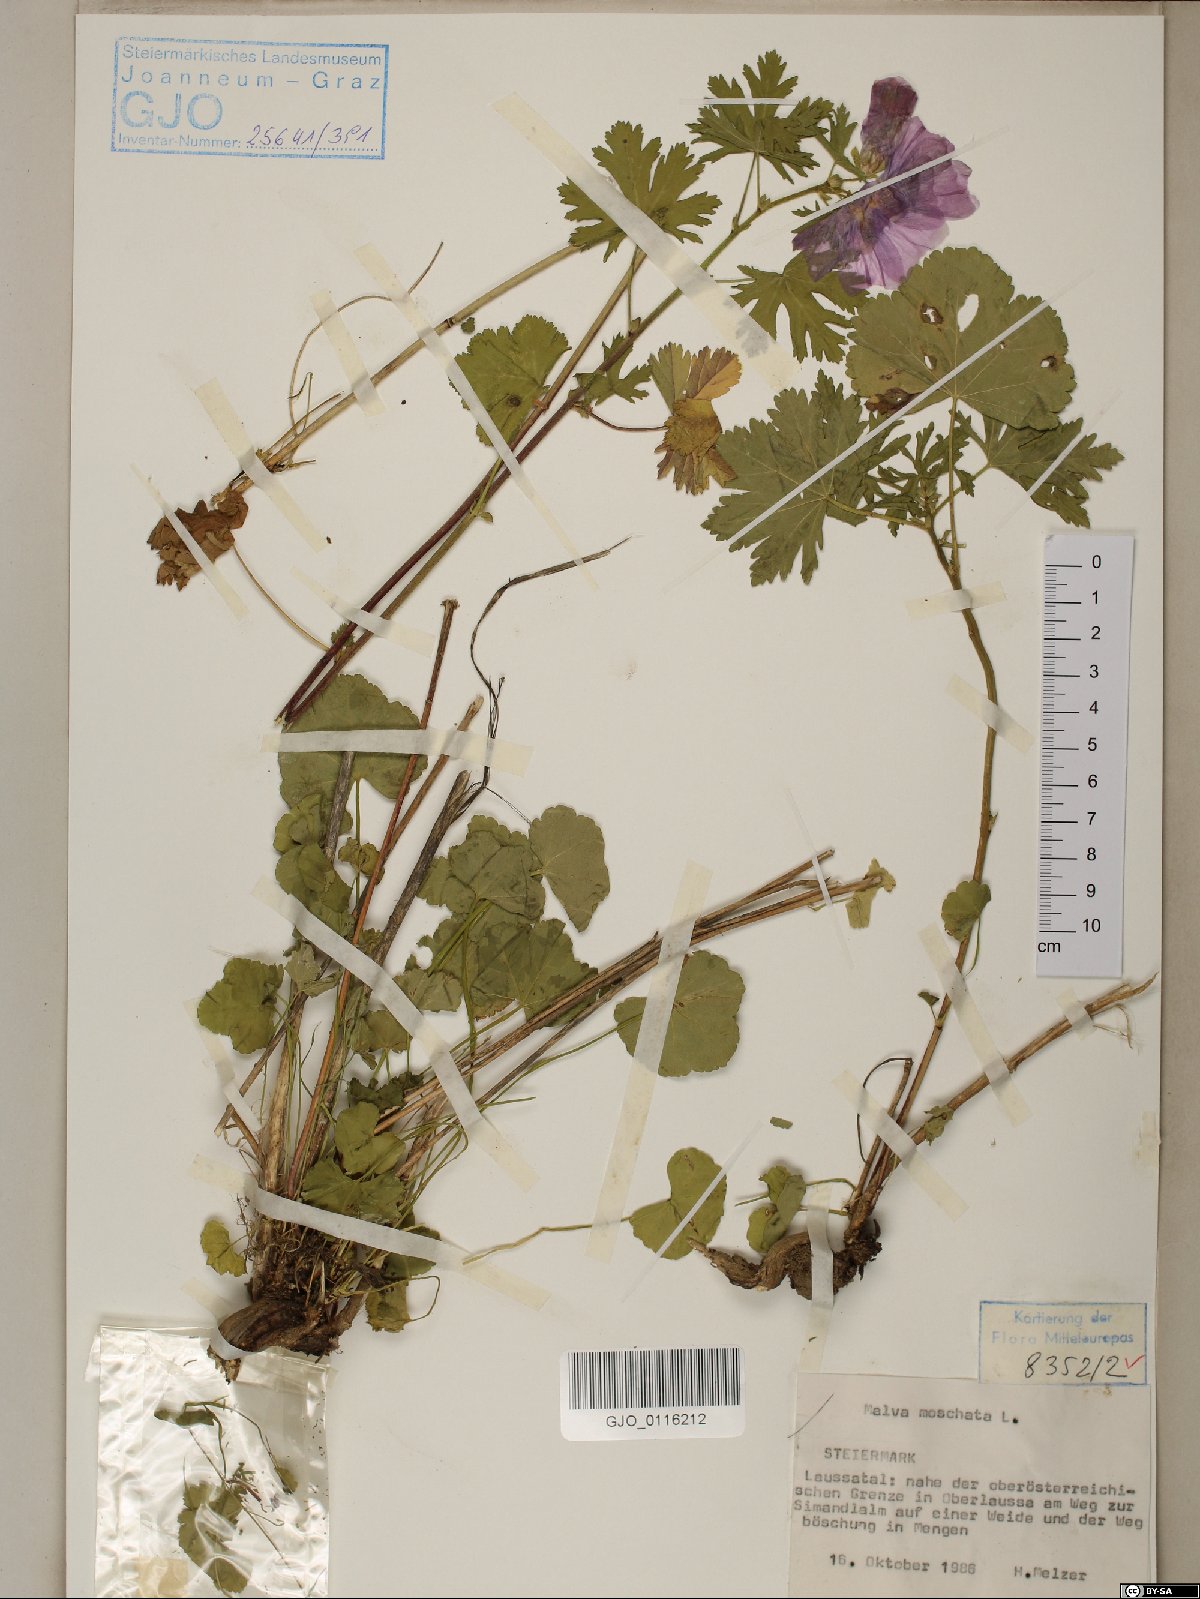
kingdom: Plantae
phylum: Tracheophyta
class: Magnoliopsida
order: Malvales
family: Malvaceae
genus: Malva
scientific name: Malva moschata
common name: Musk mallow
